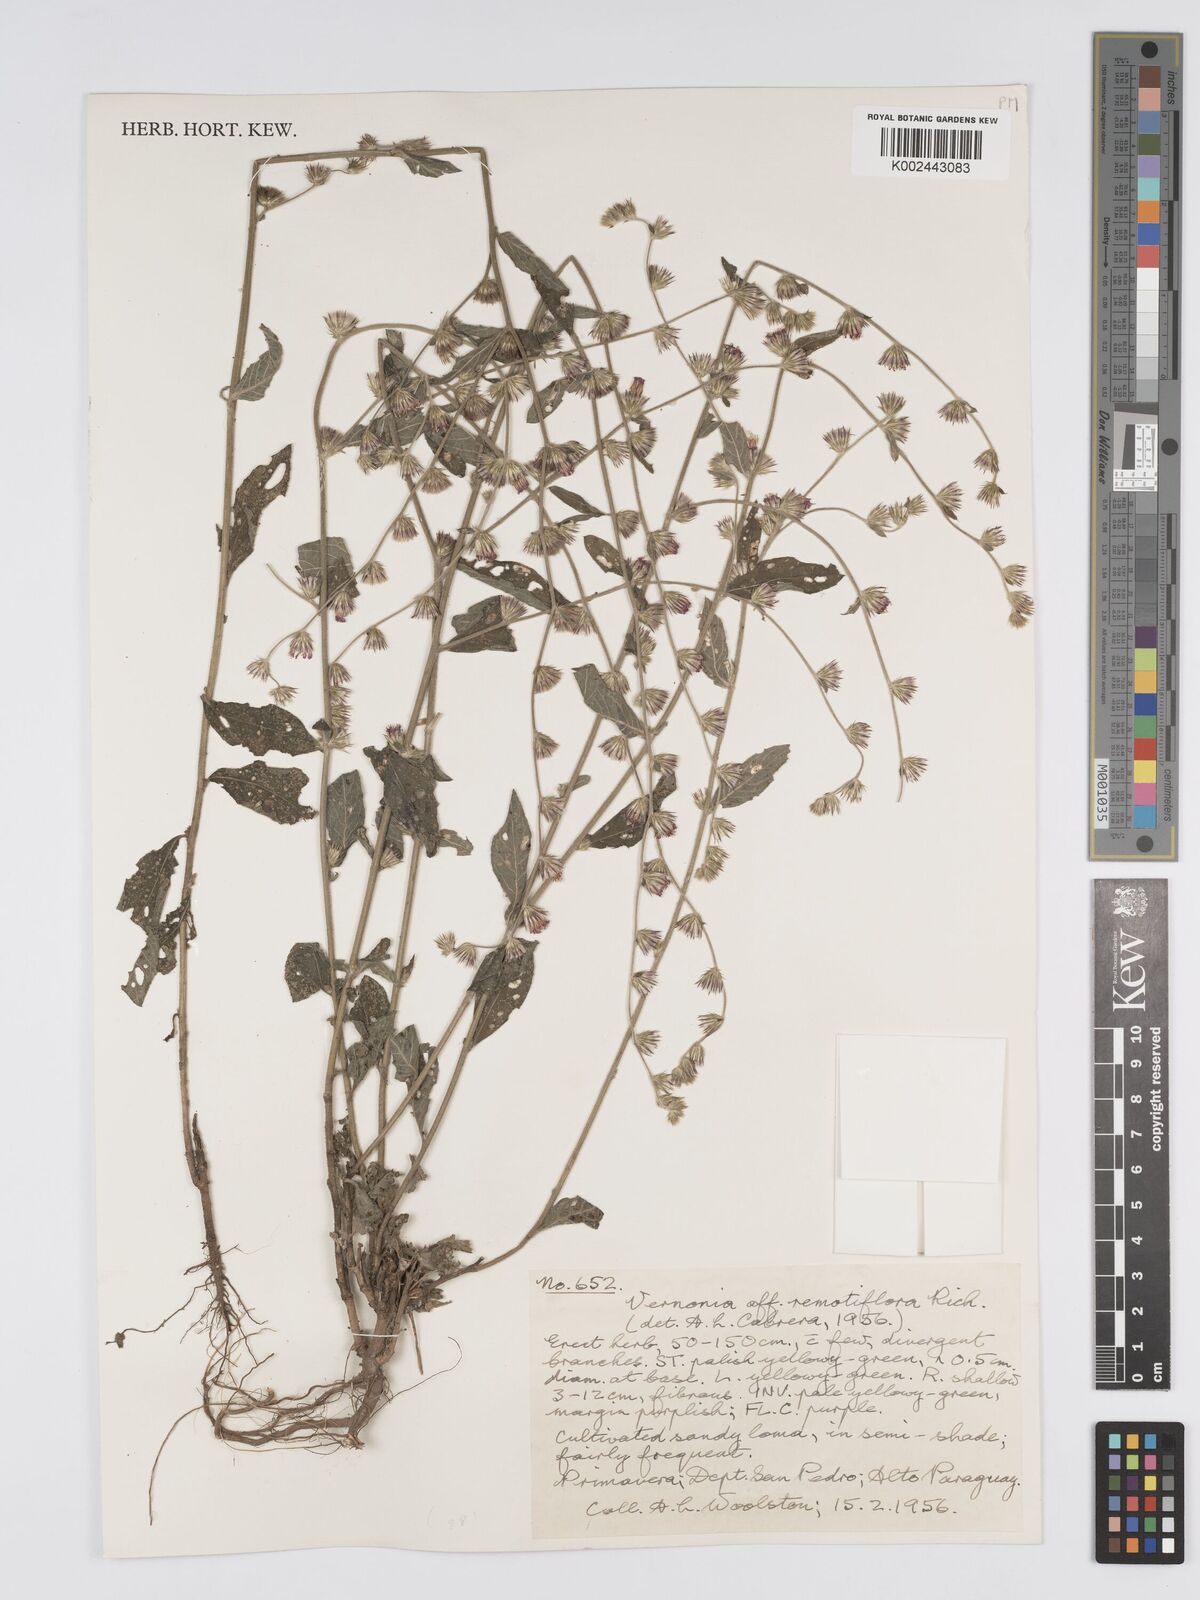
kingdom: Plantae
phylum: Tracheophyta
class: Magnoliopsida
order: Asterales
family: Asteraceae
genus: Lepidaploa
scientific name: Lepidaploa remotiflora
